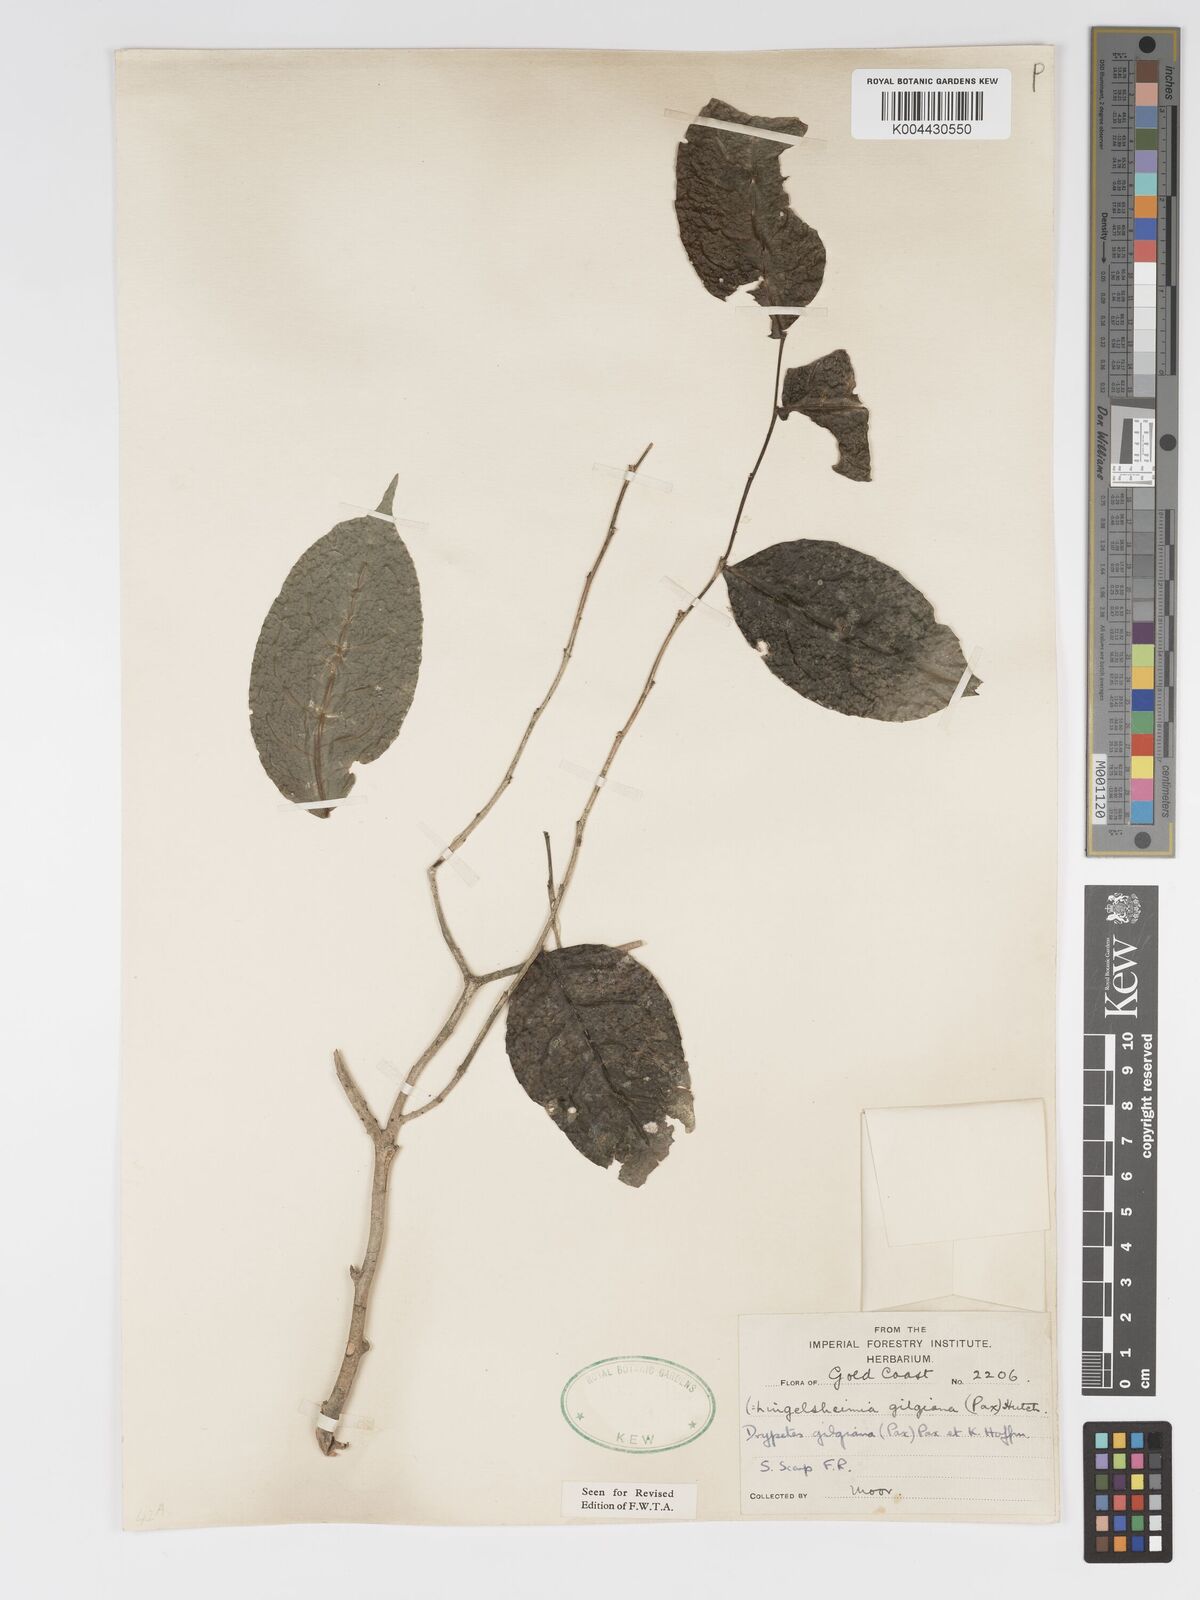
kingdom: Plantae
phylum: Tracheophyta
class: Magnoliopsida
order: Malpighiales
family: Putranjivaceae
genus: Drypetes
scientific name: Drypetes gilgiana
